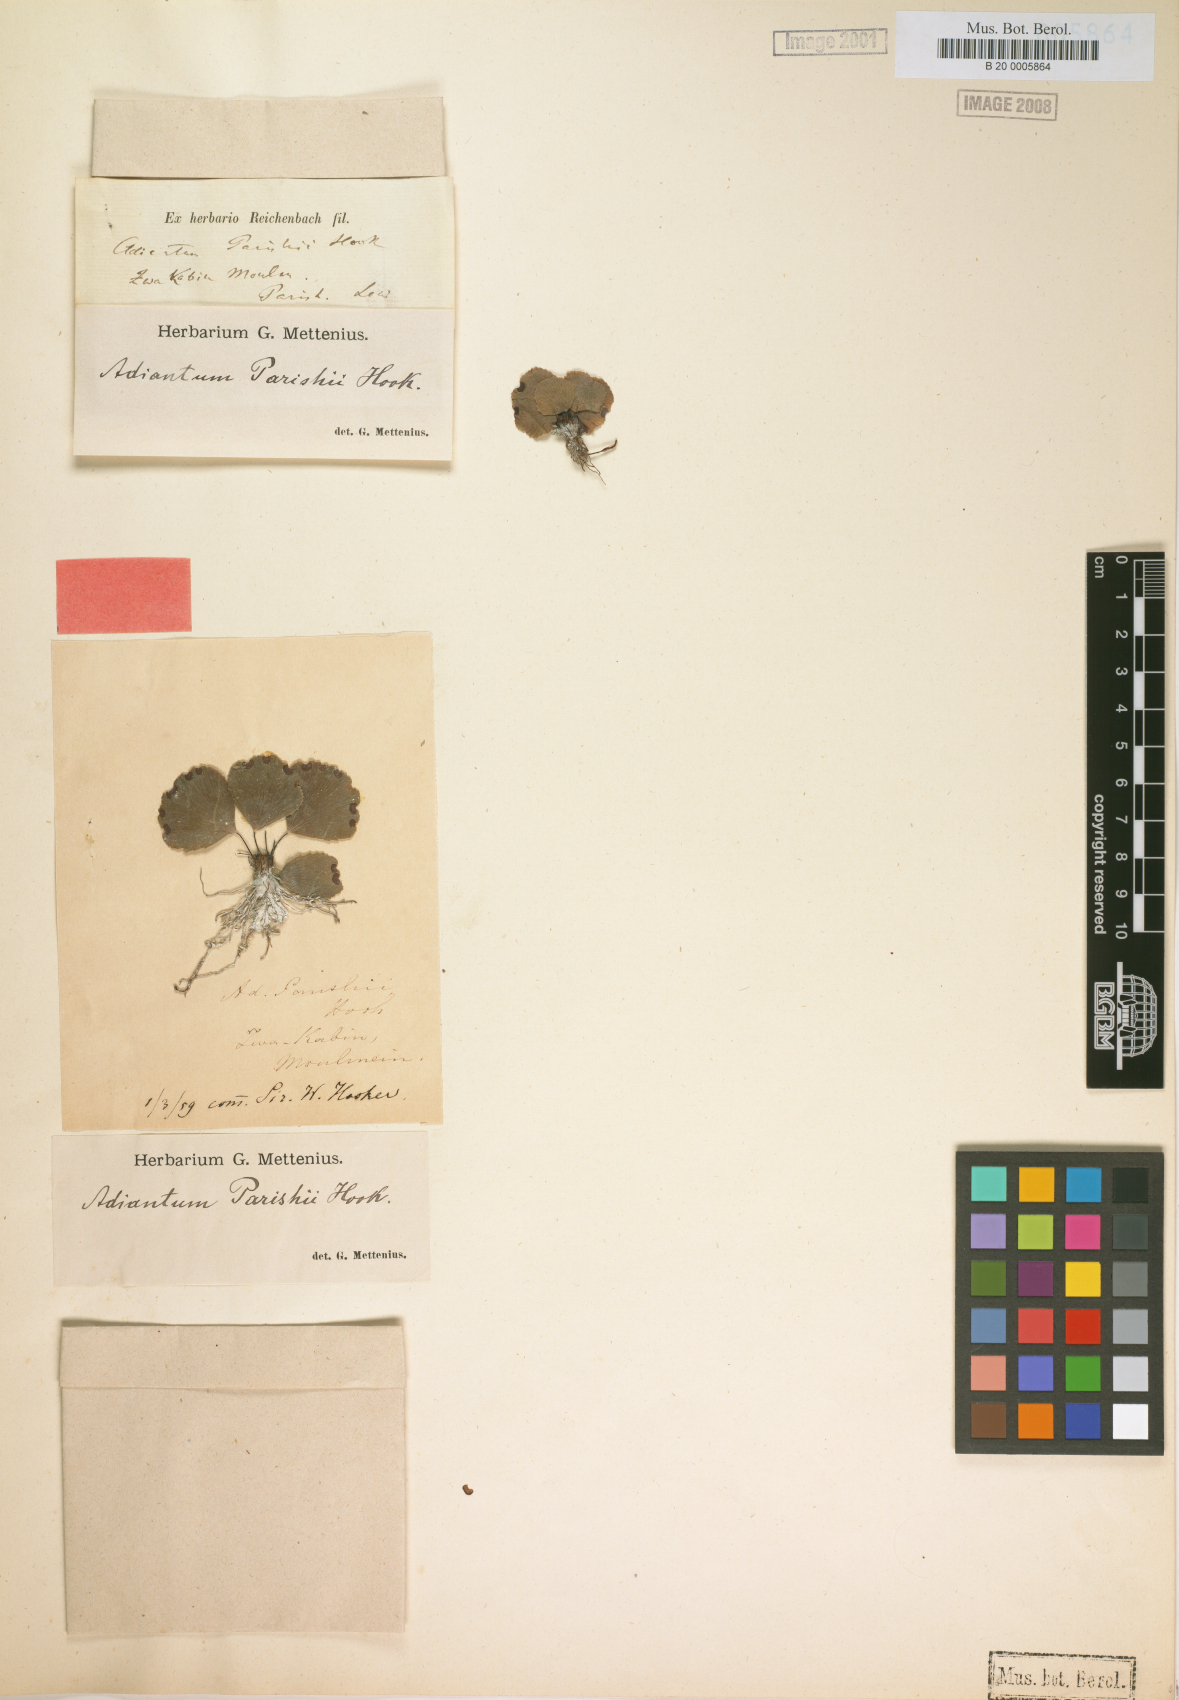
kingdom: Plantae
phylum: Tracheophyta
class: Polypodiopsida
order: Polypodiales
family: Pteridaceae
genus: Adiantum
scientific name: Adiantum parishii
